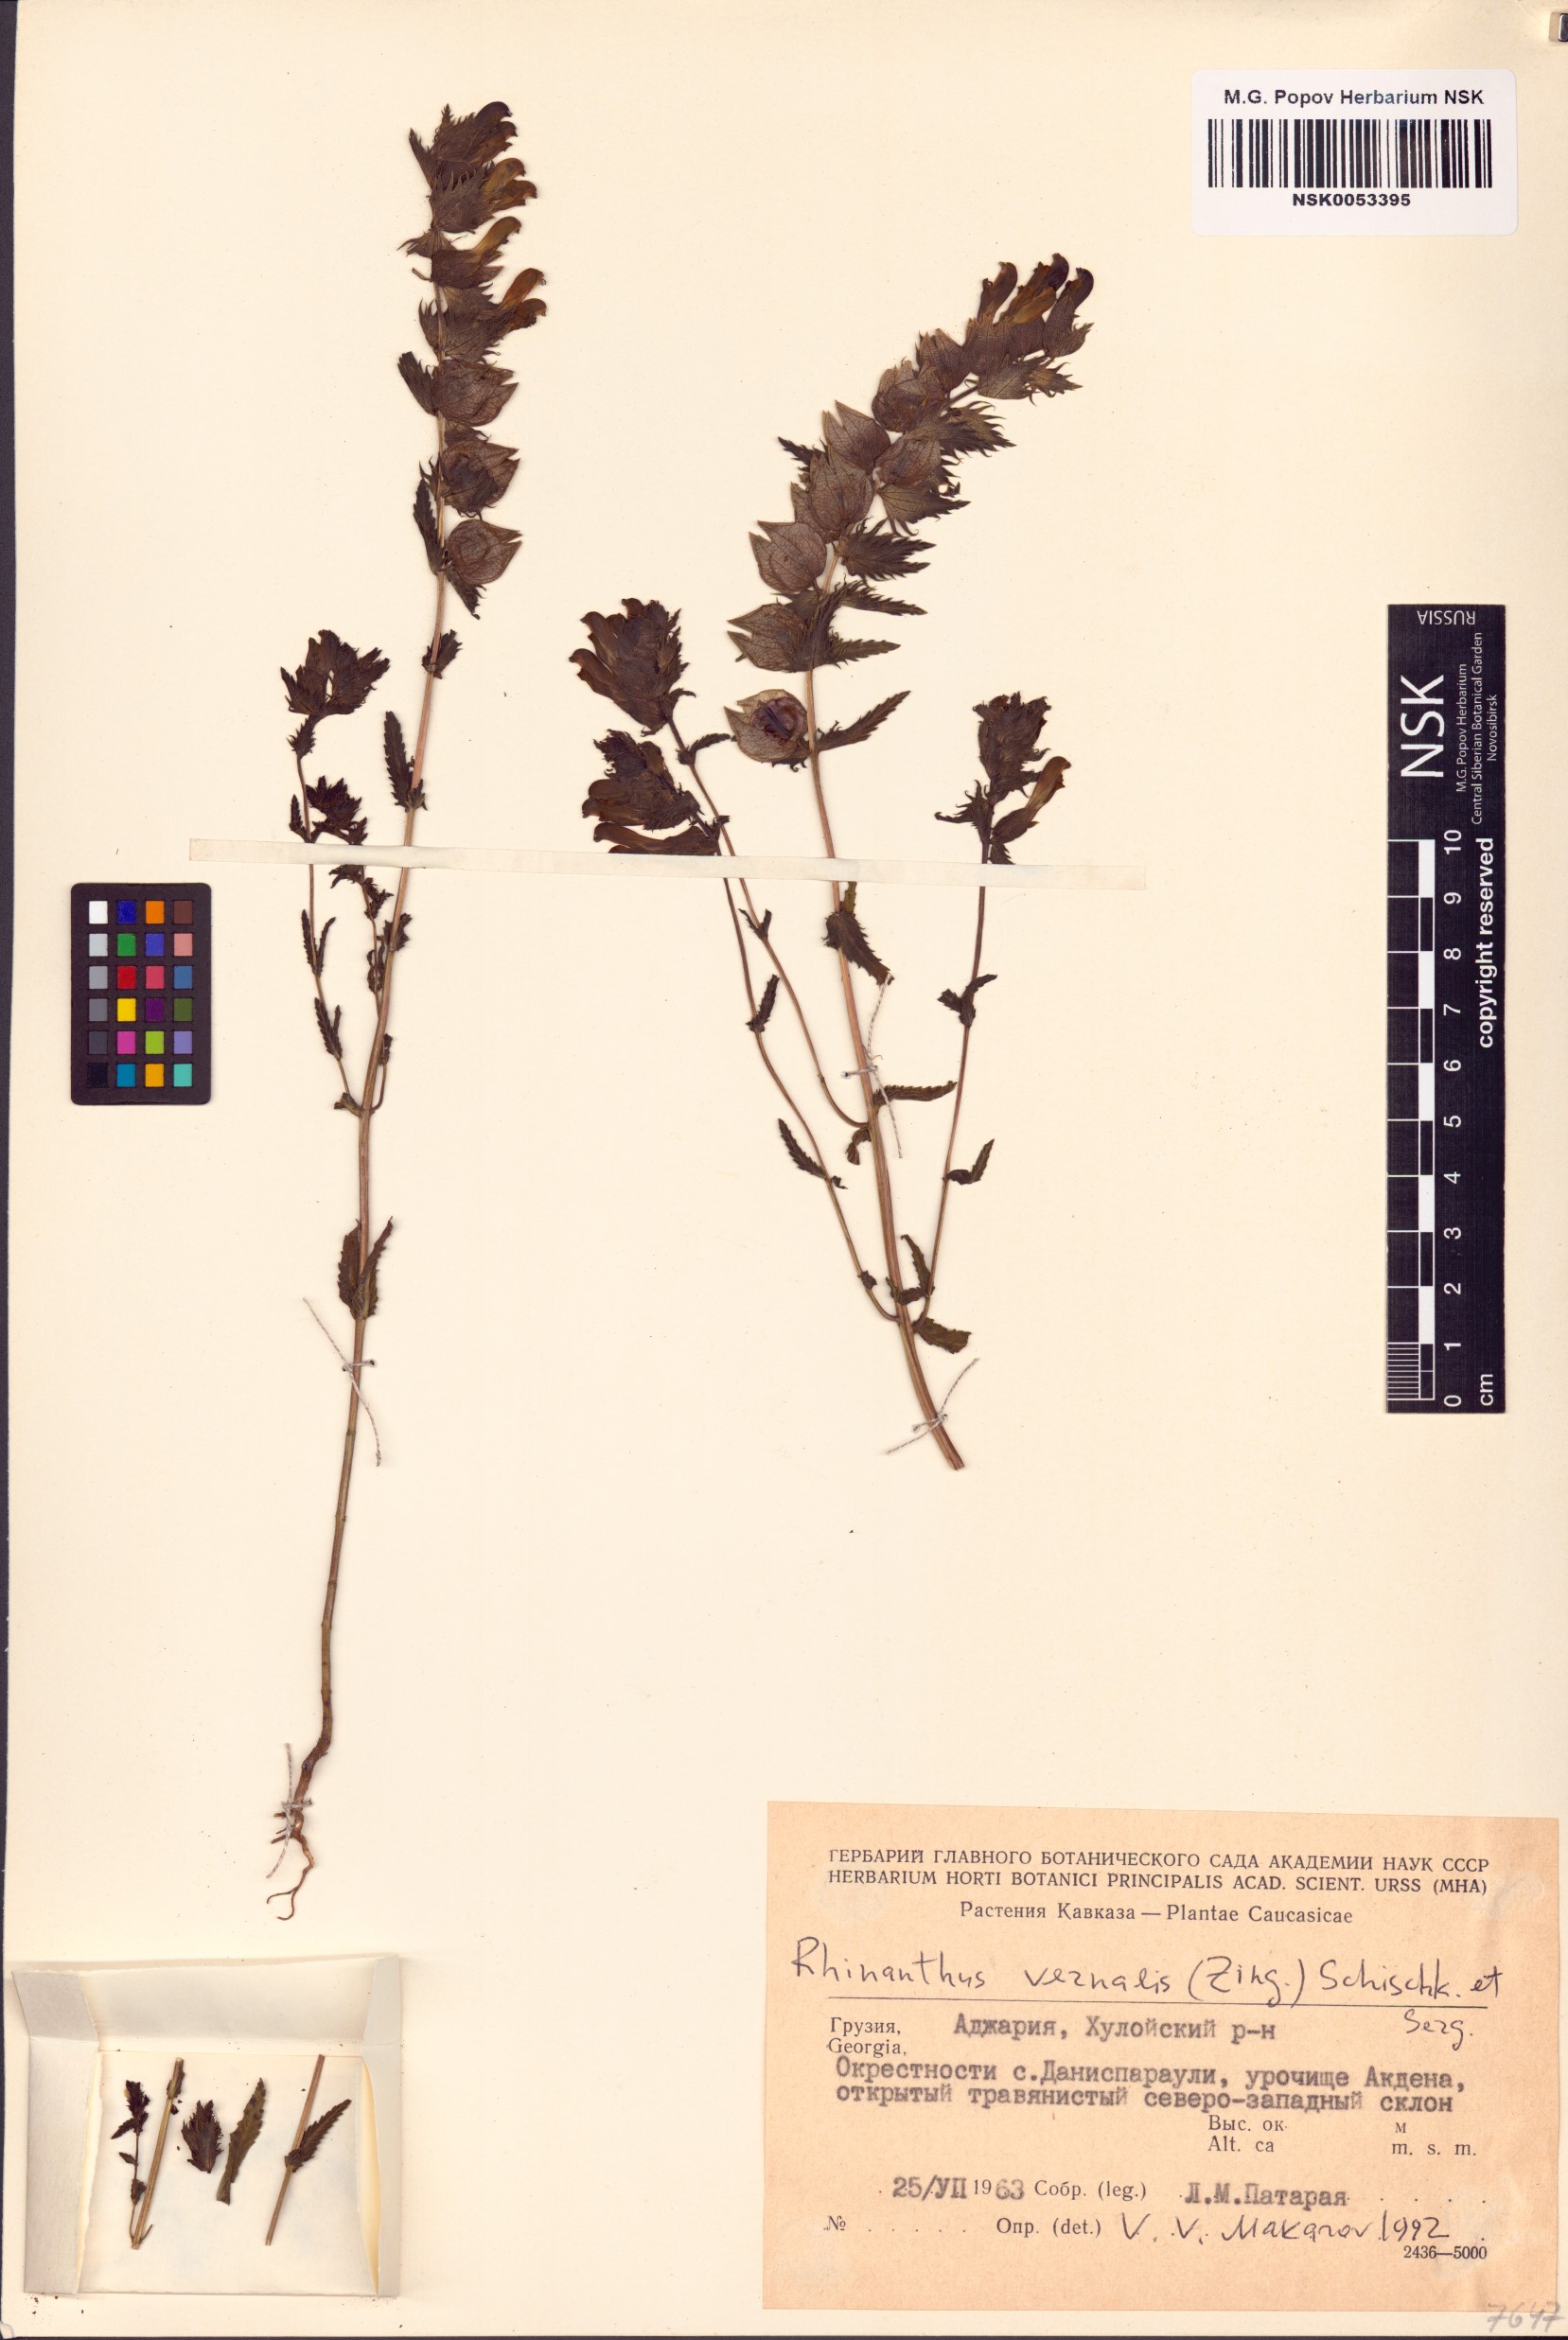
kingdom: Plantae
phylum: Tracheophyta
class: Magnoliopsida
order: Lamiales
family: Orobanchaceae
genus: Rhinanthus
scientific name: Rhinanthus serotinus
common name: Late-flowering yellow rattle
